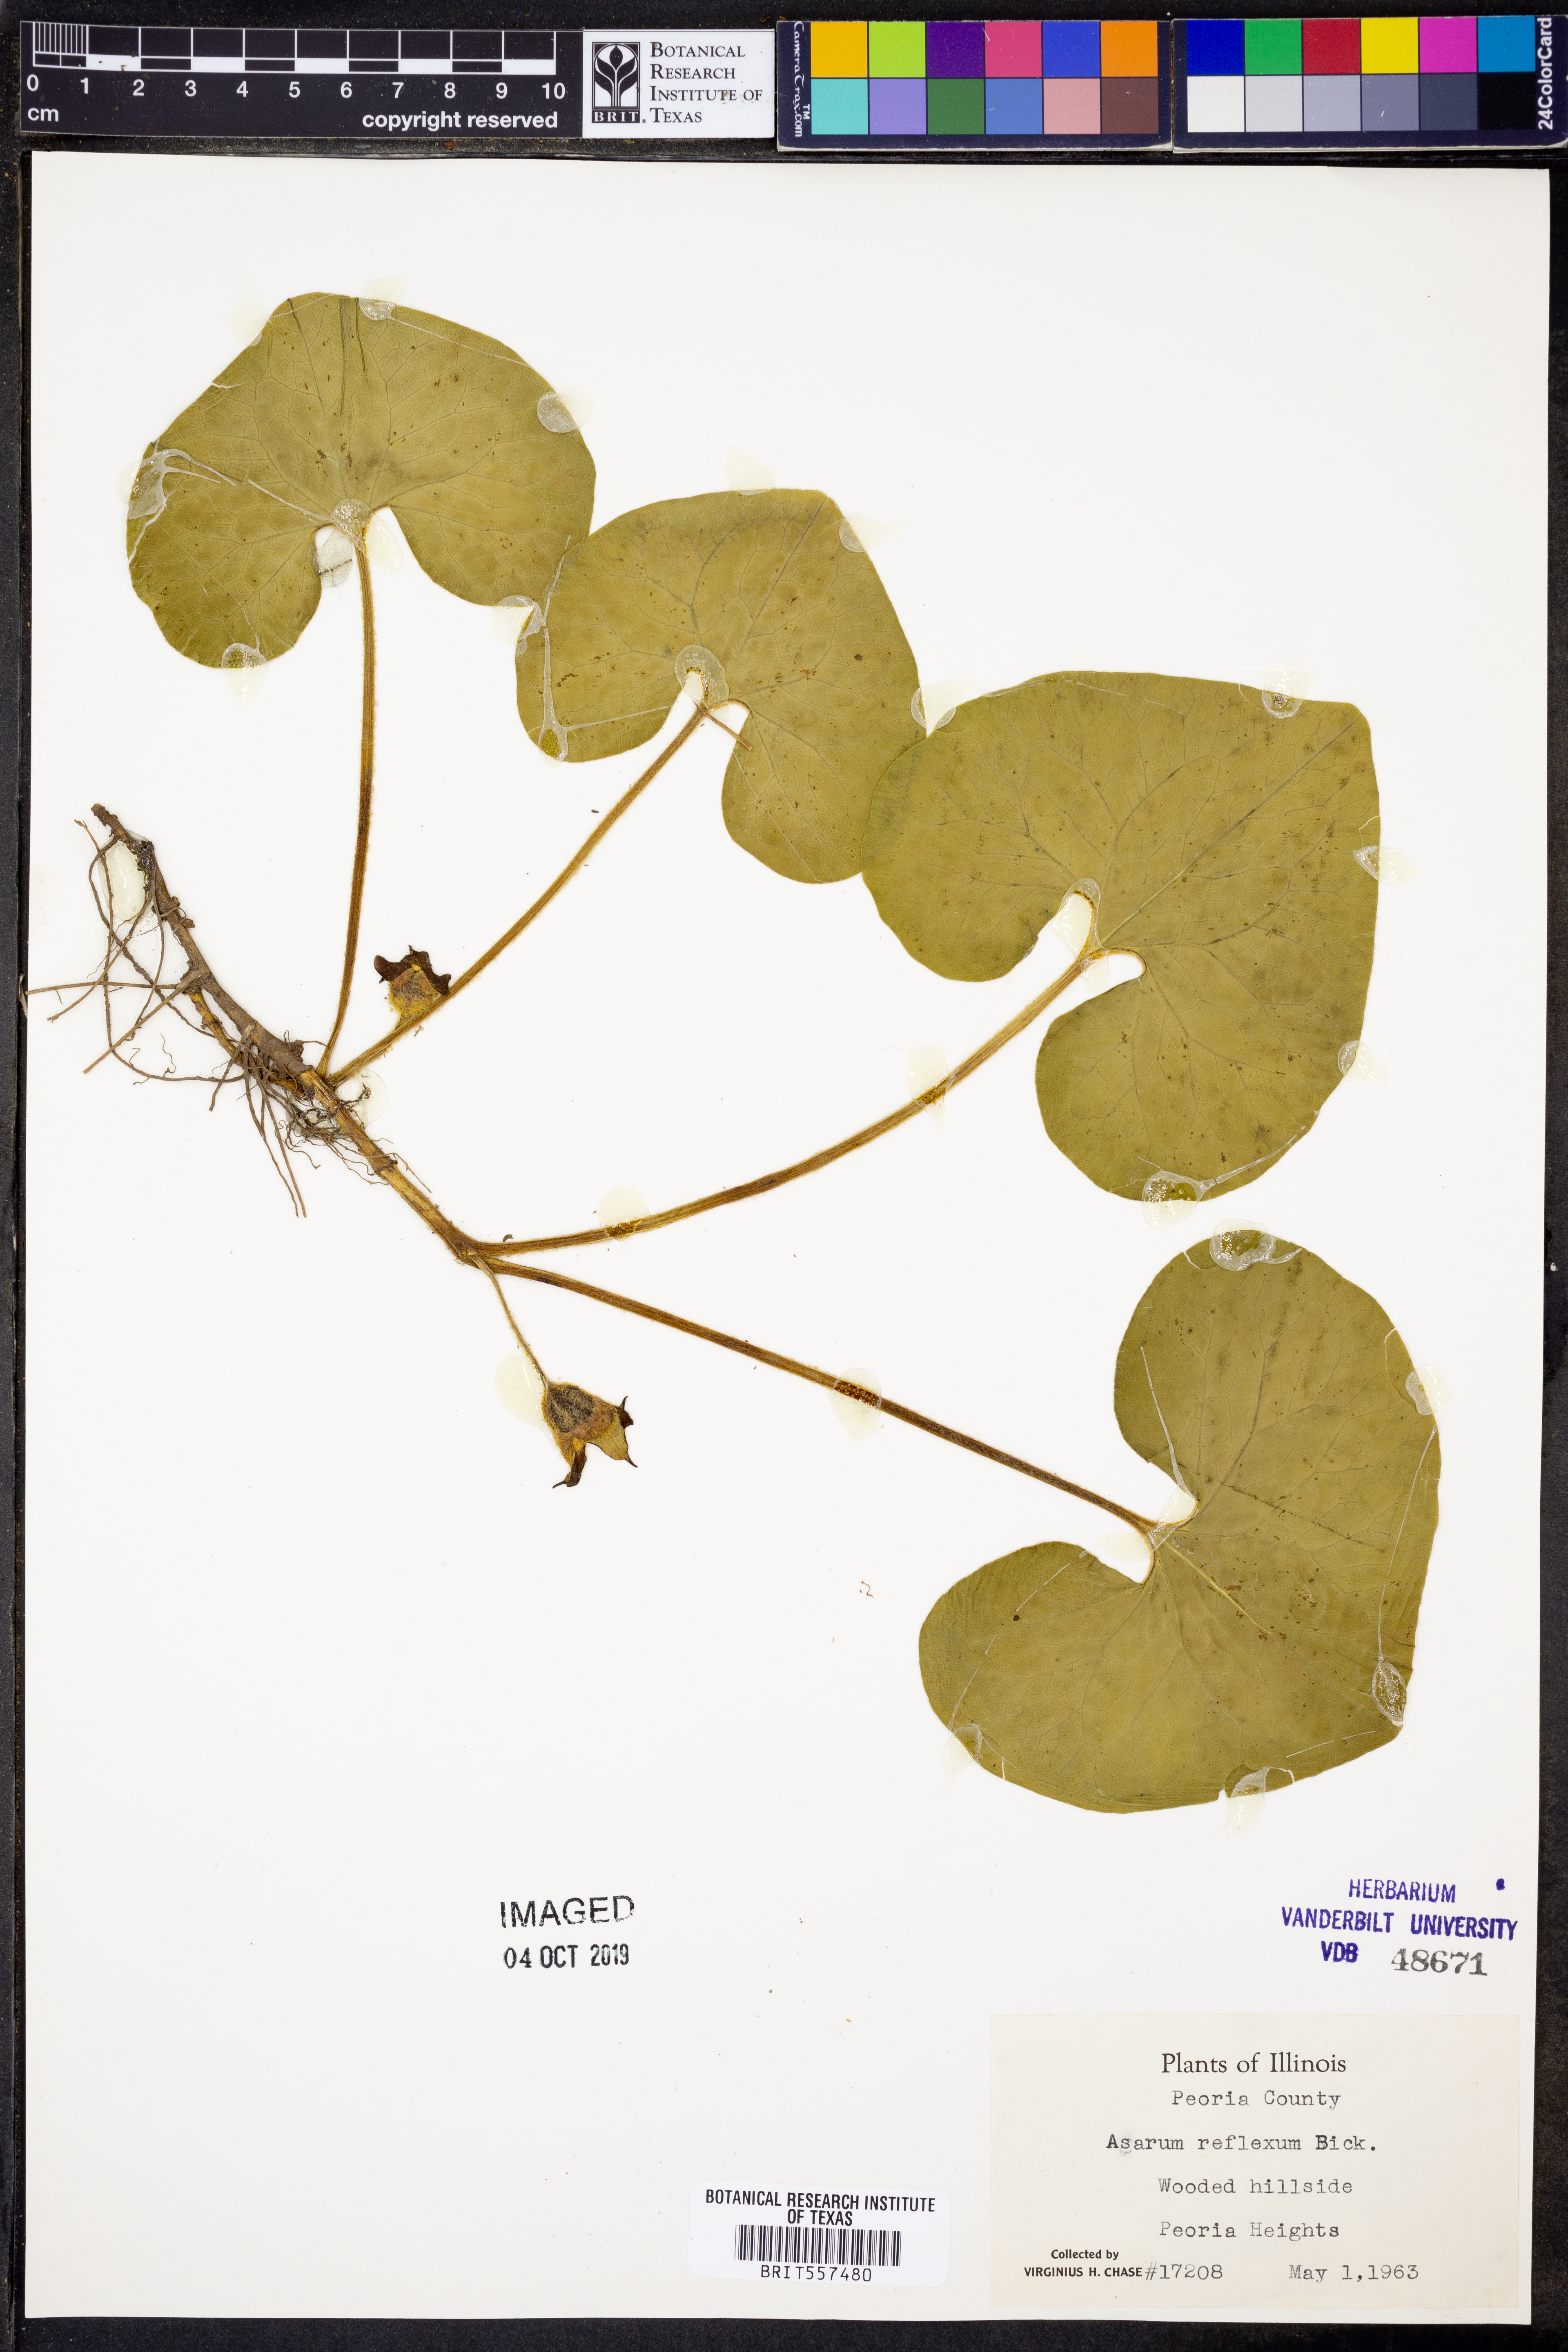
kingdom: Plantae
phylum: Tracheophyta
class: Magnoliopsida
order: Piperales
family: Aristolochiaceae
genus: Asarum
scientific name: Asarum canadense
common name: Wild ginger
